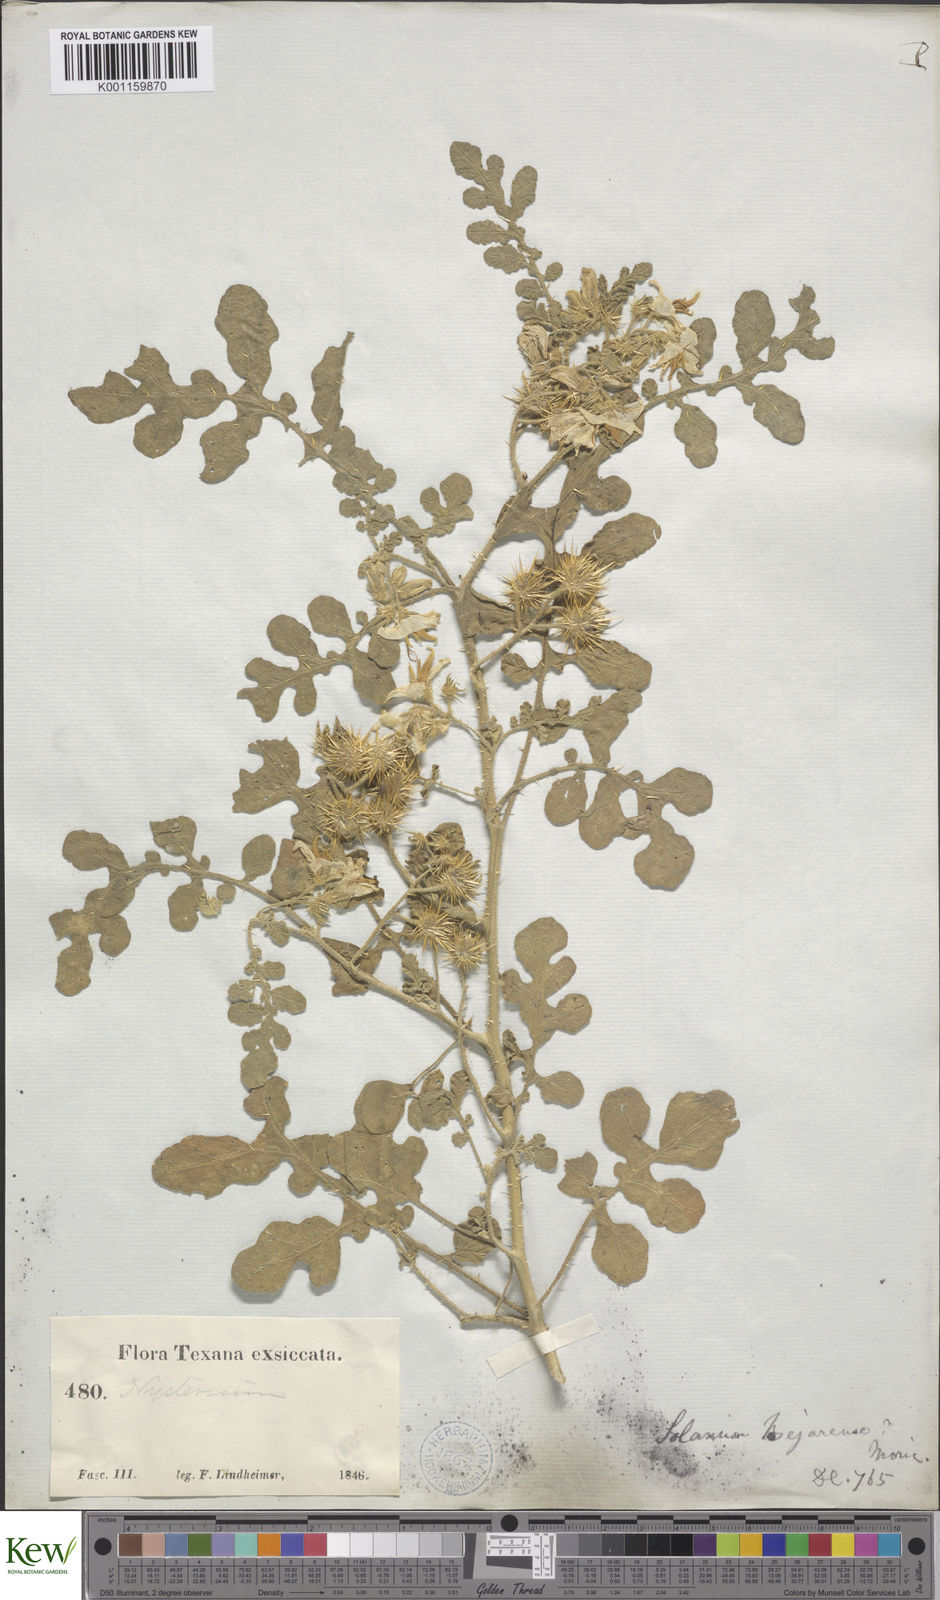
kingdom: Plantae
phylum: Tracheophyta
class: Magnoliopsida
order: Solanales
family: Solanaceae
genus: Solanum
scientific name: Solanum angustifolium
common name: Buffalobur nightshade
